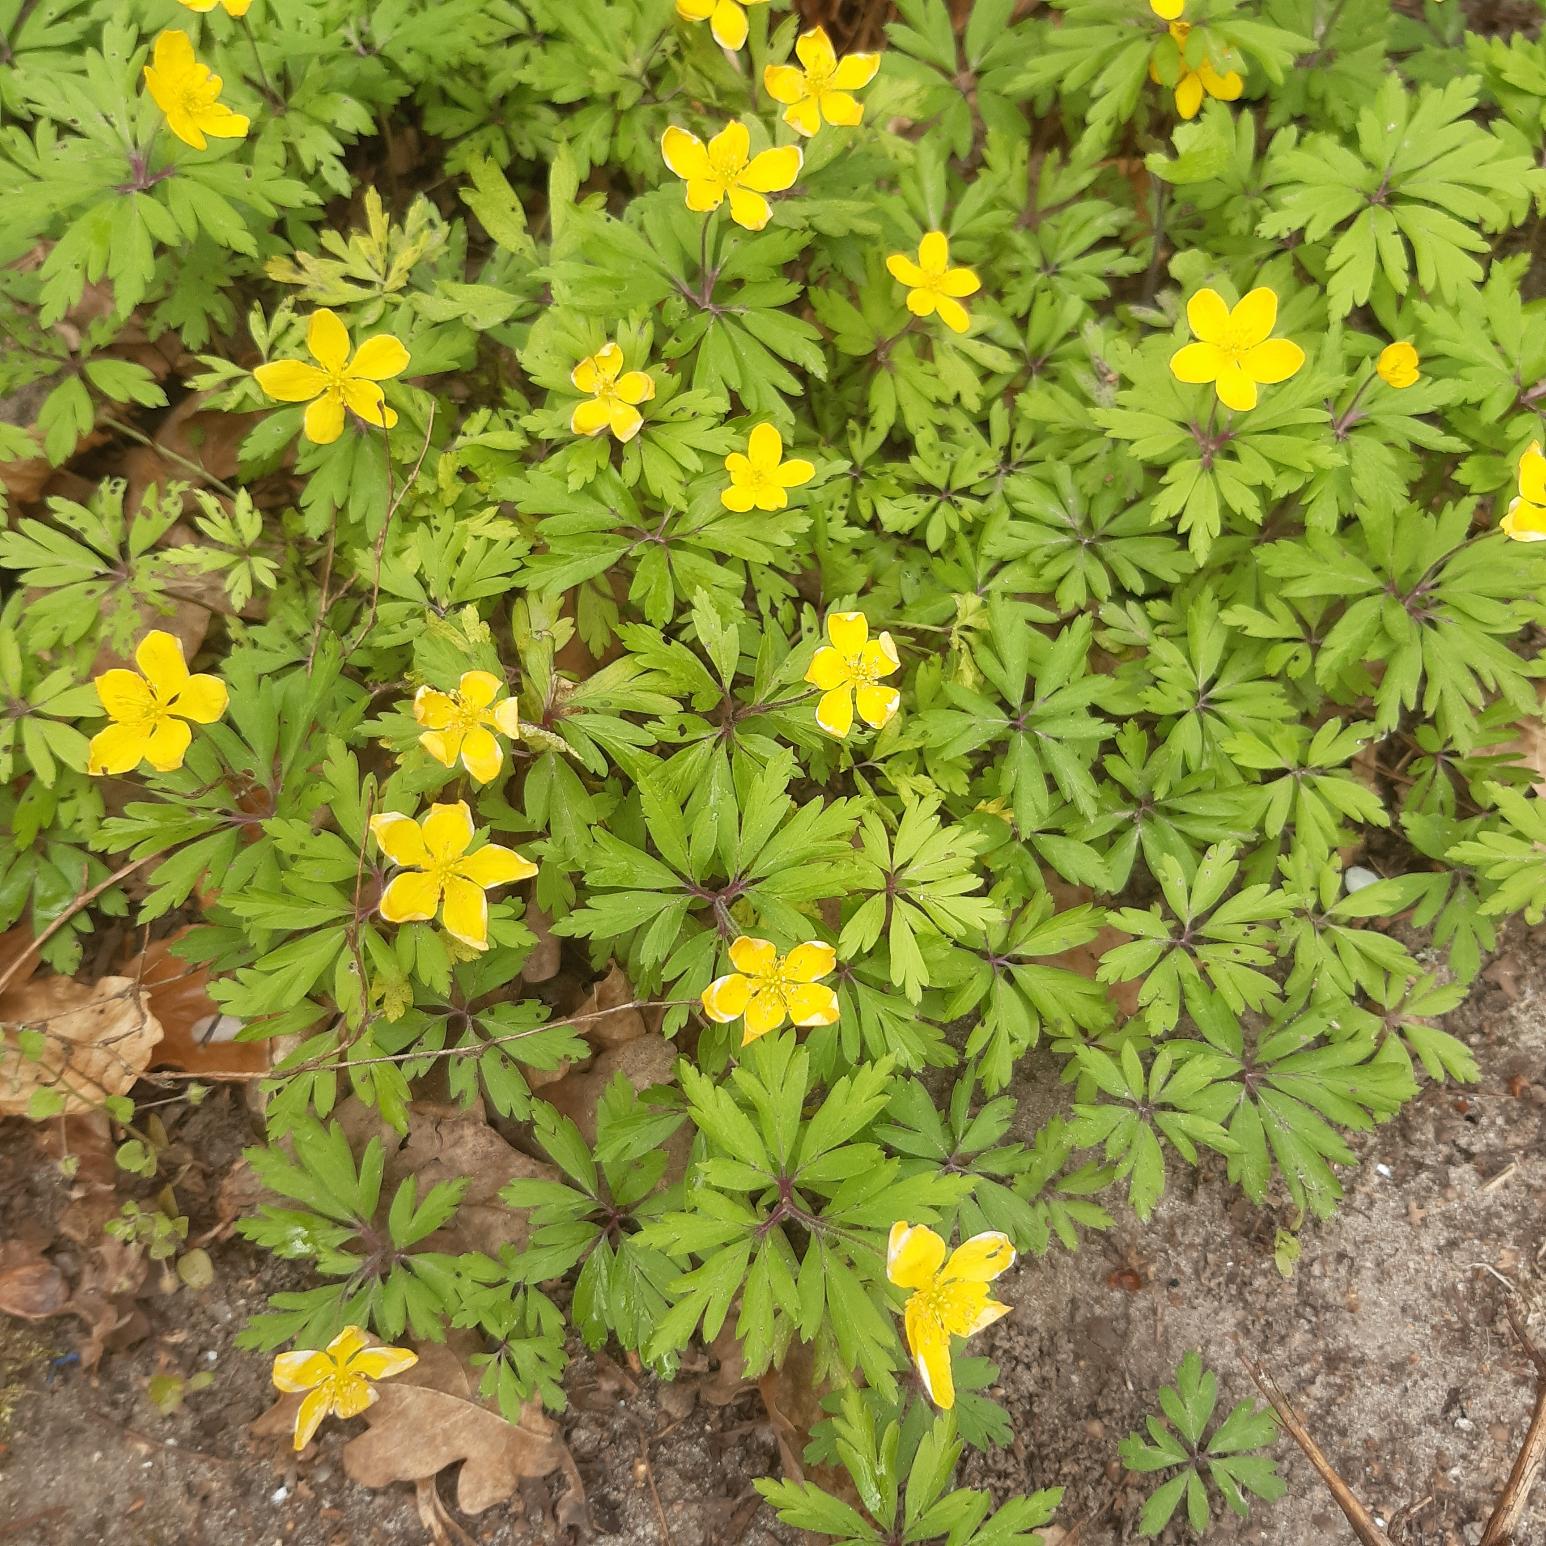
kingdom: Plantae
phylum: Tracheophyta
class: Magnoliopsida
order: Ranunculales
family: Ranunculaceae
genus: Anemone
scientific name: Anemone ranunculoides
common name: Gul anemone
